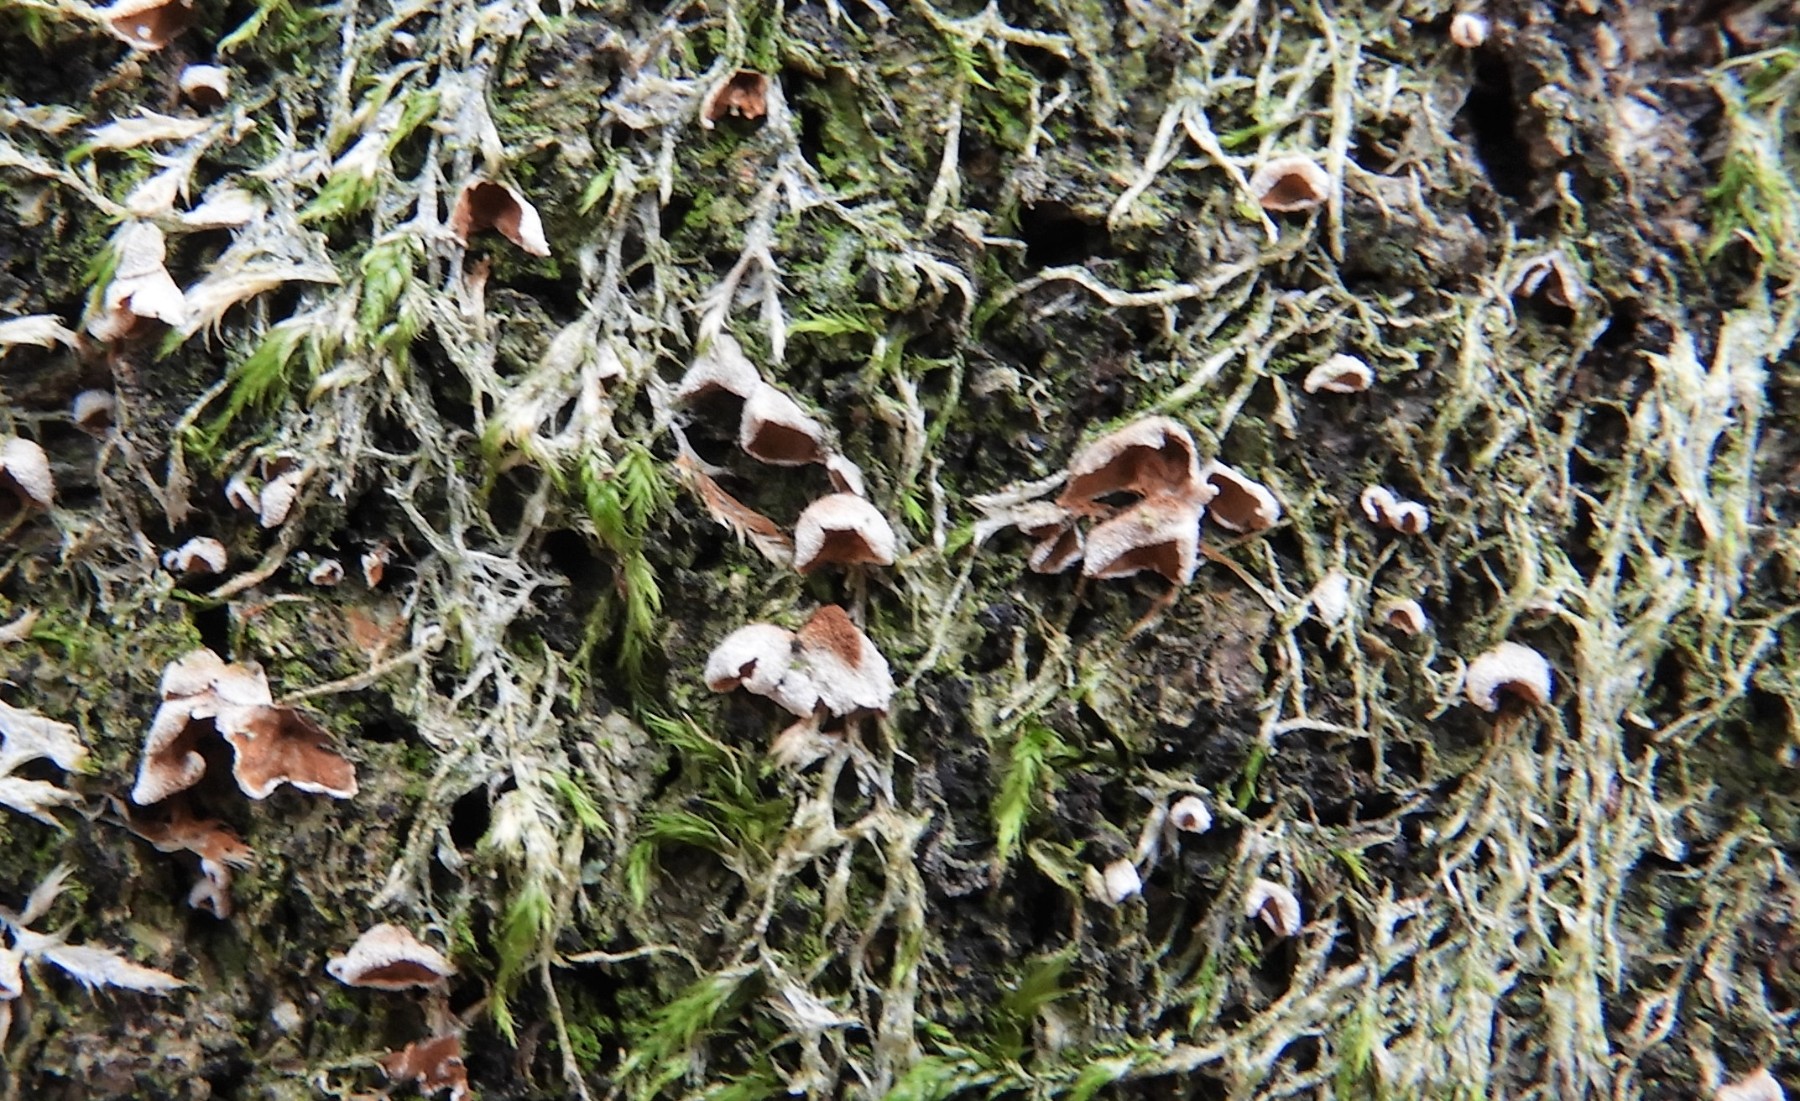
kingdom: Fungi
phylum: Basidiomycota
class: Agaricomycetes
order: Agaricales
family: Chromocyphellaceae
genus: Chromocyphella
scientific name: Chromocyphella muscicola
